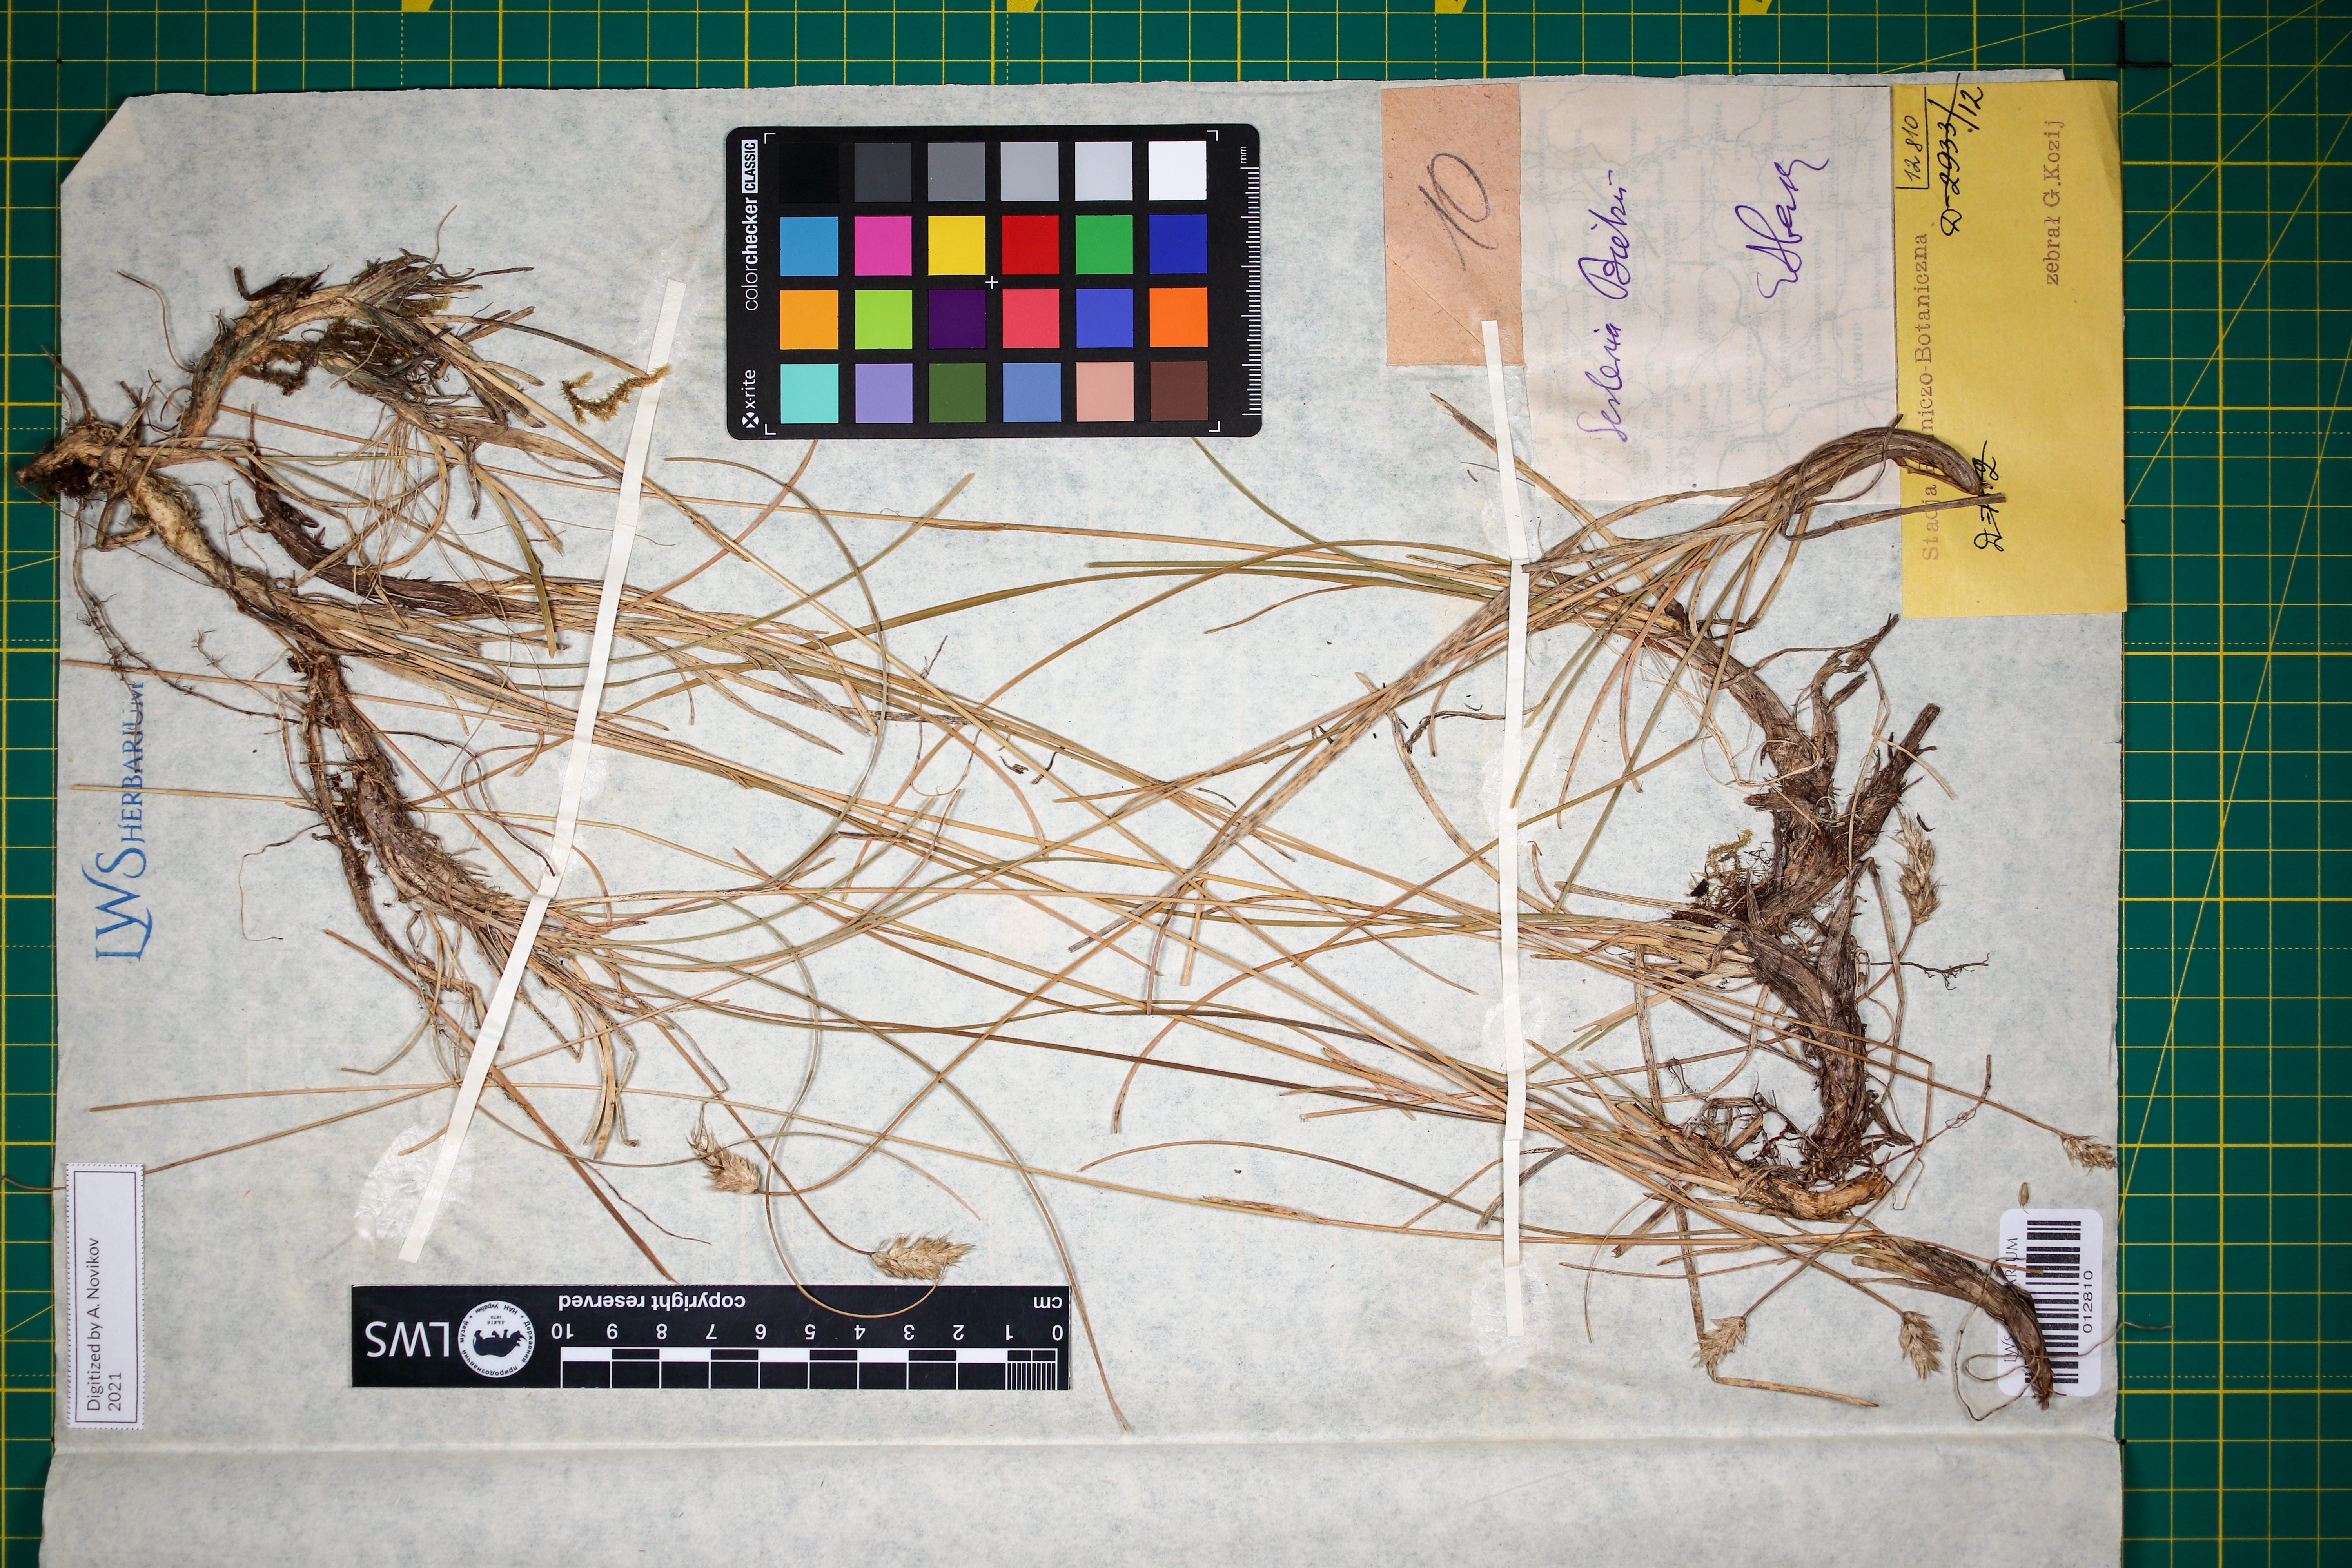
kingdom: Plantae
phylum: Tracheophyta
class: Liliopsida
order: Poales
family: Poaceae
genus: Sesleria
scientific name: Sesleria bielzii
